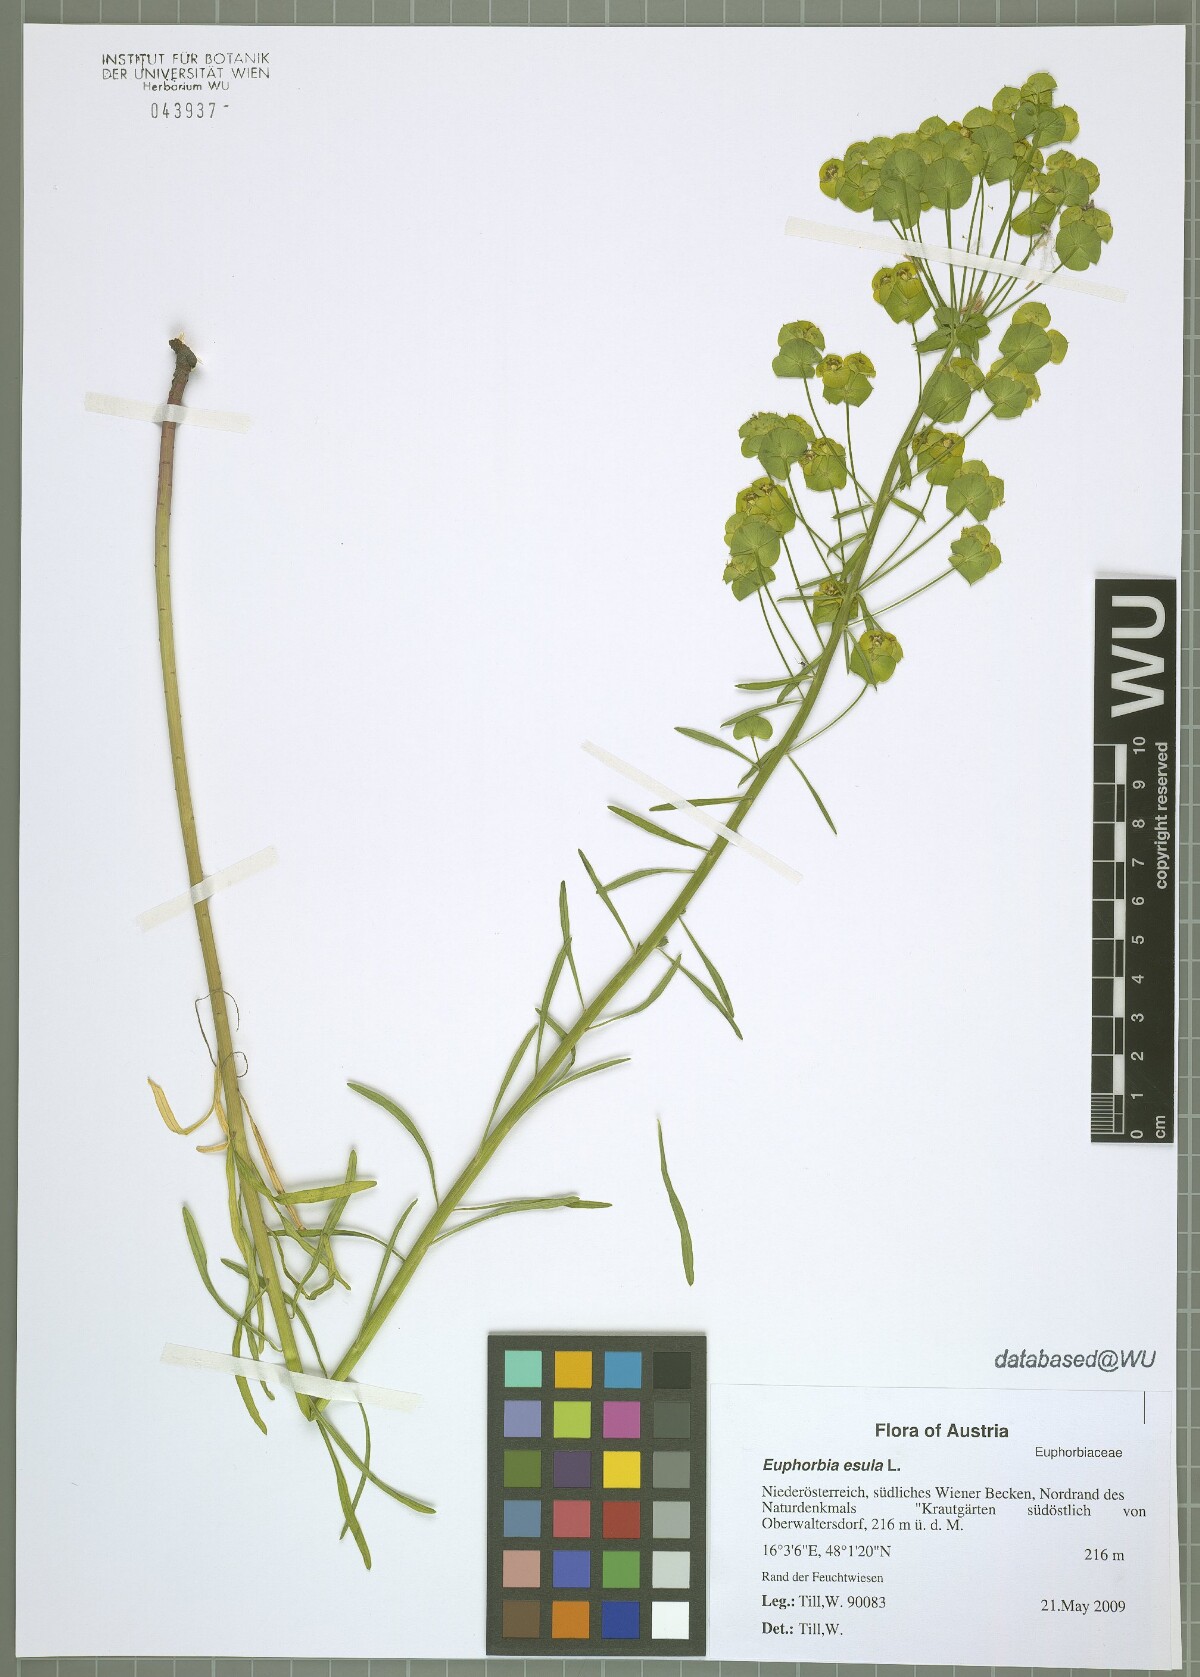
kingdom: Plantae
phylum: Tracheophyta
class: Magnoliopsida
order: Malpighiales
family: Euphorbiaceae
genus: Euphorbia
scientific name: Euphorbia esula
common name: Leafy spurge
